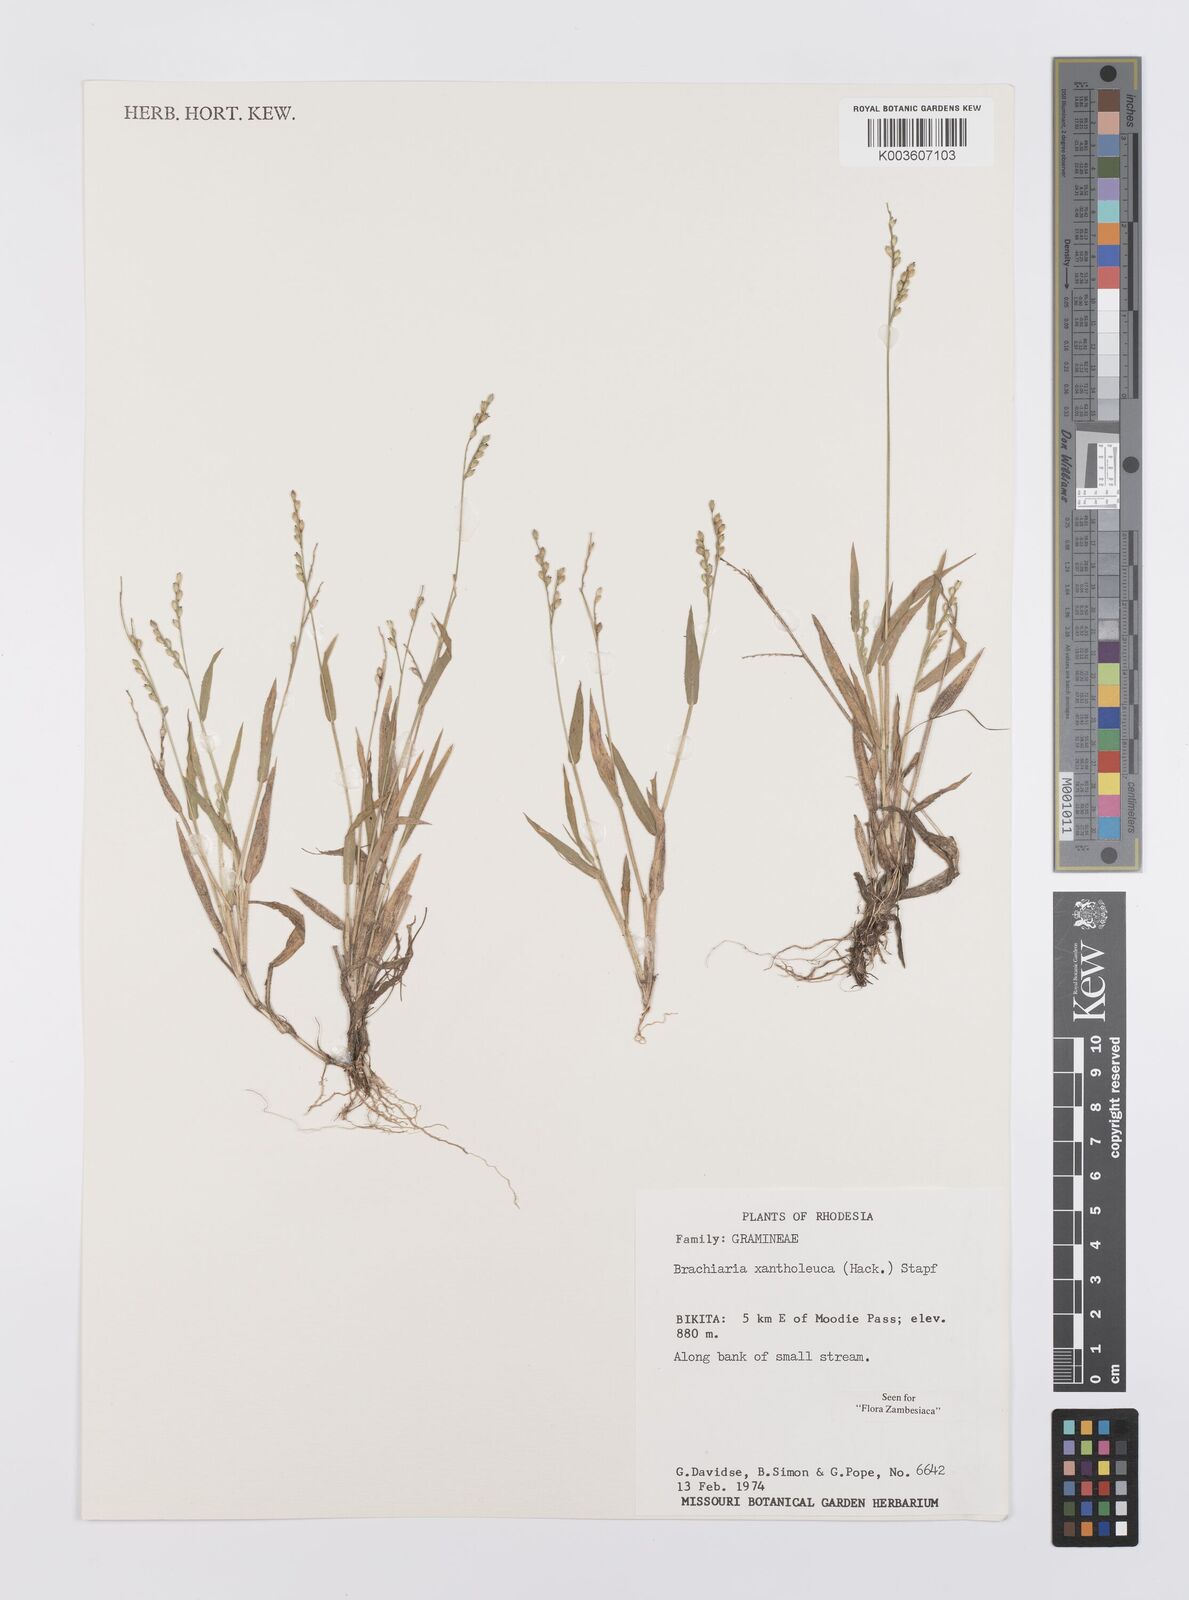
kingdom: Plantae
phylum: Tracheophyta
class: Liliopsida
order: Poales
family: Poaceae
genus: Urochloa
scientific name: Urochloa xantholeuca
